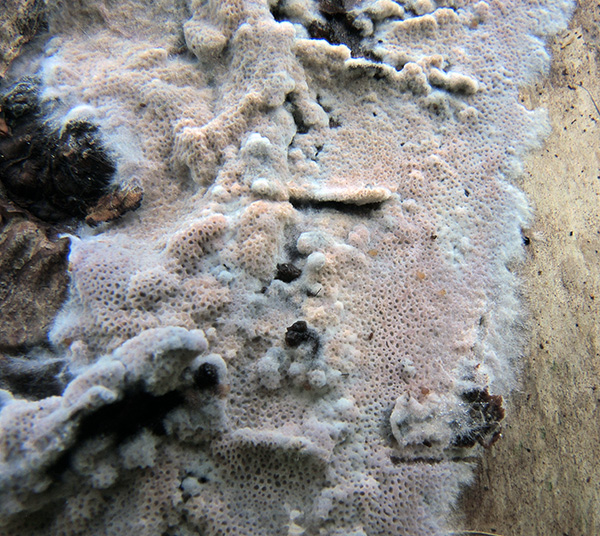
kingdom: Fungi
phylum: Basidiomycota
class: Agaricomycetes
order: Polyporales
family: Irpicaceae
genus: Ceriporia
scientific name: Ceriporia aurantiocarnescens
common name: orangerosa voksporesvamp
